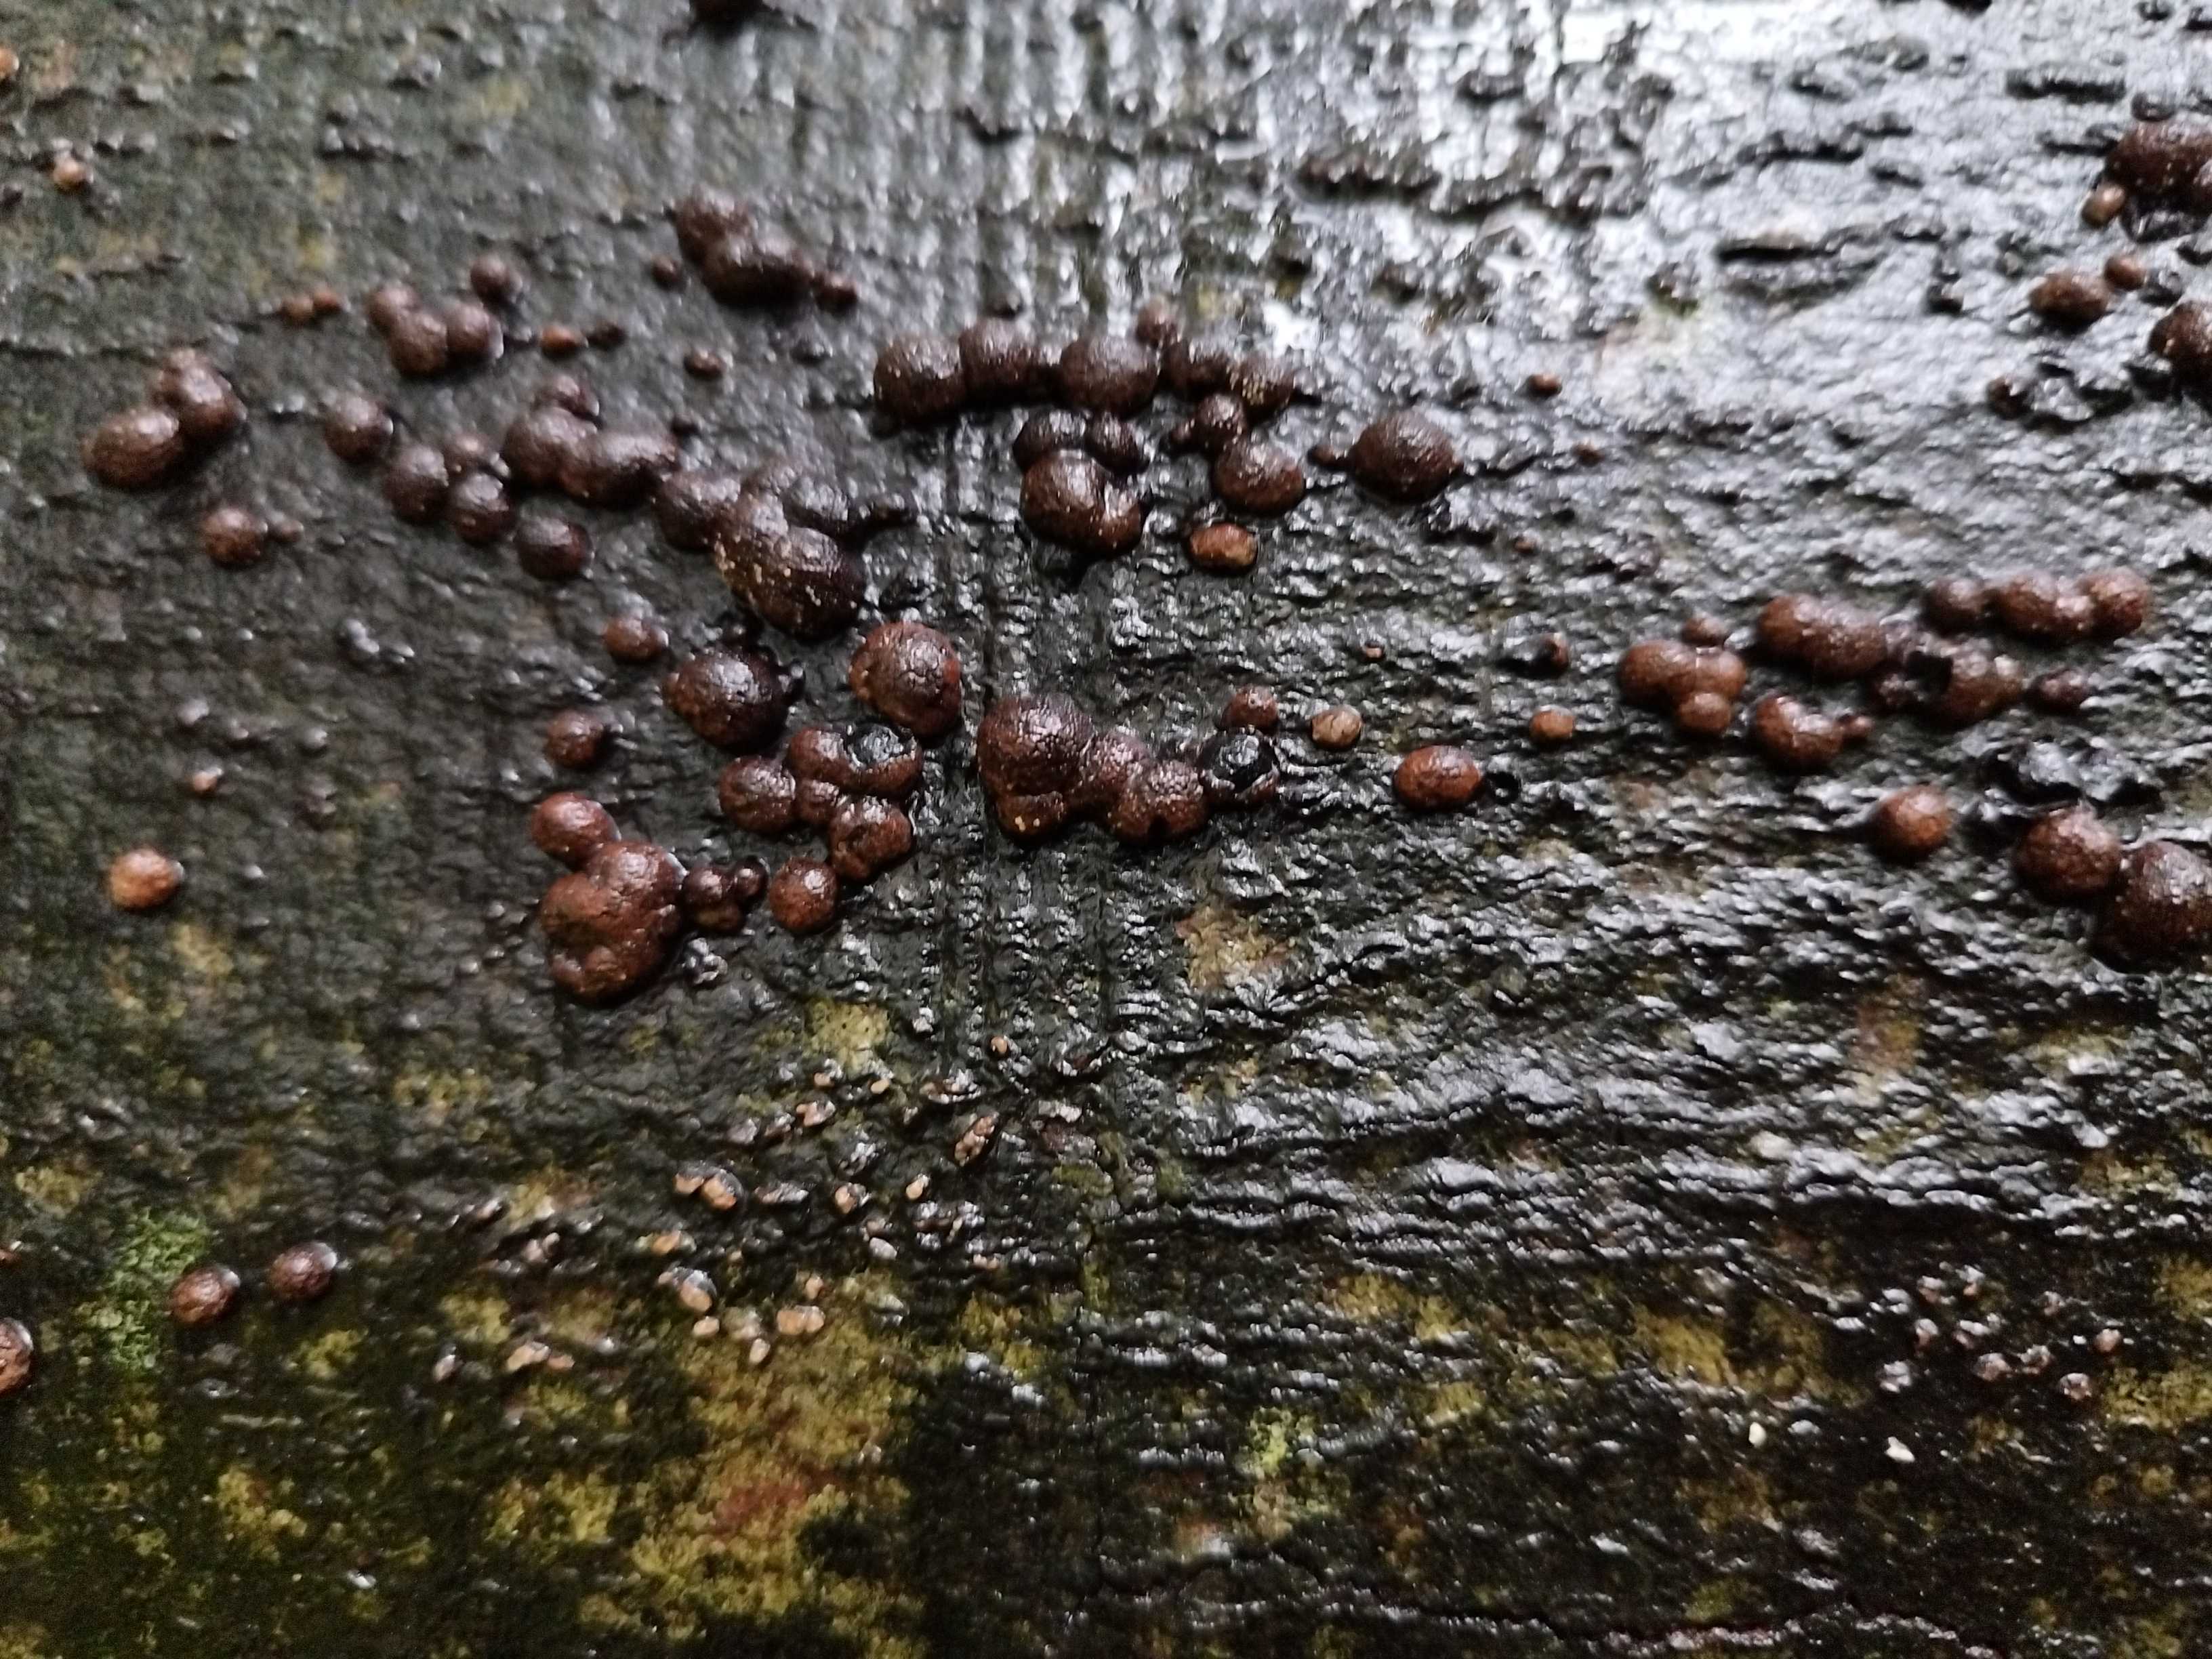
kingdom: Fungi
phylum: Ascomycota
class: Sordariomycetes
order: Xylariales
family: Hypoxylaceae
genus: Hypoxylon
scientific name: Hypoxylon fragiforme
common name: kuljordbær
